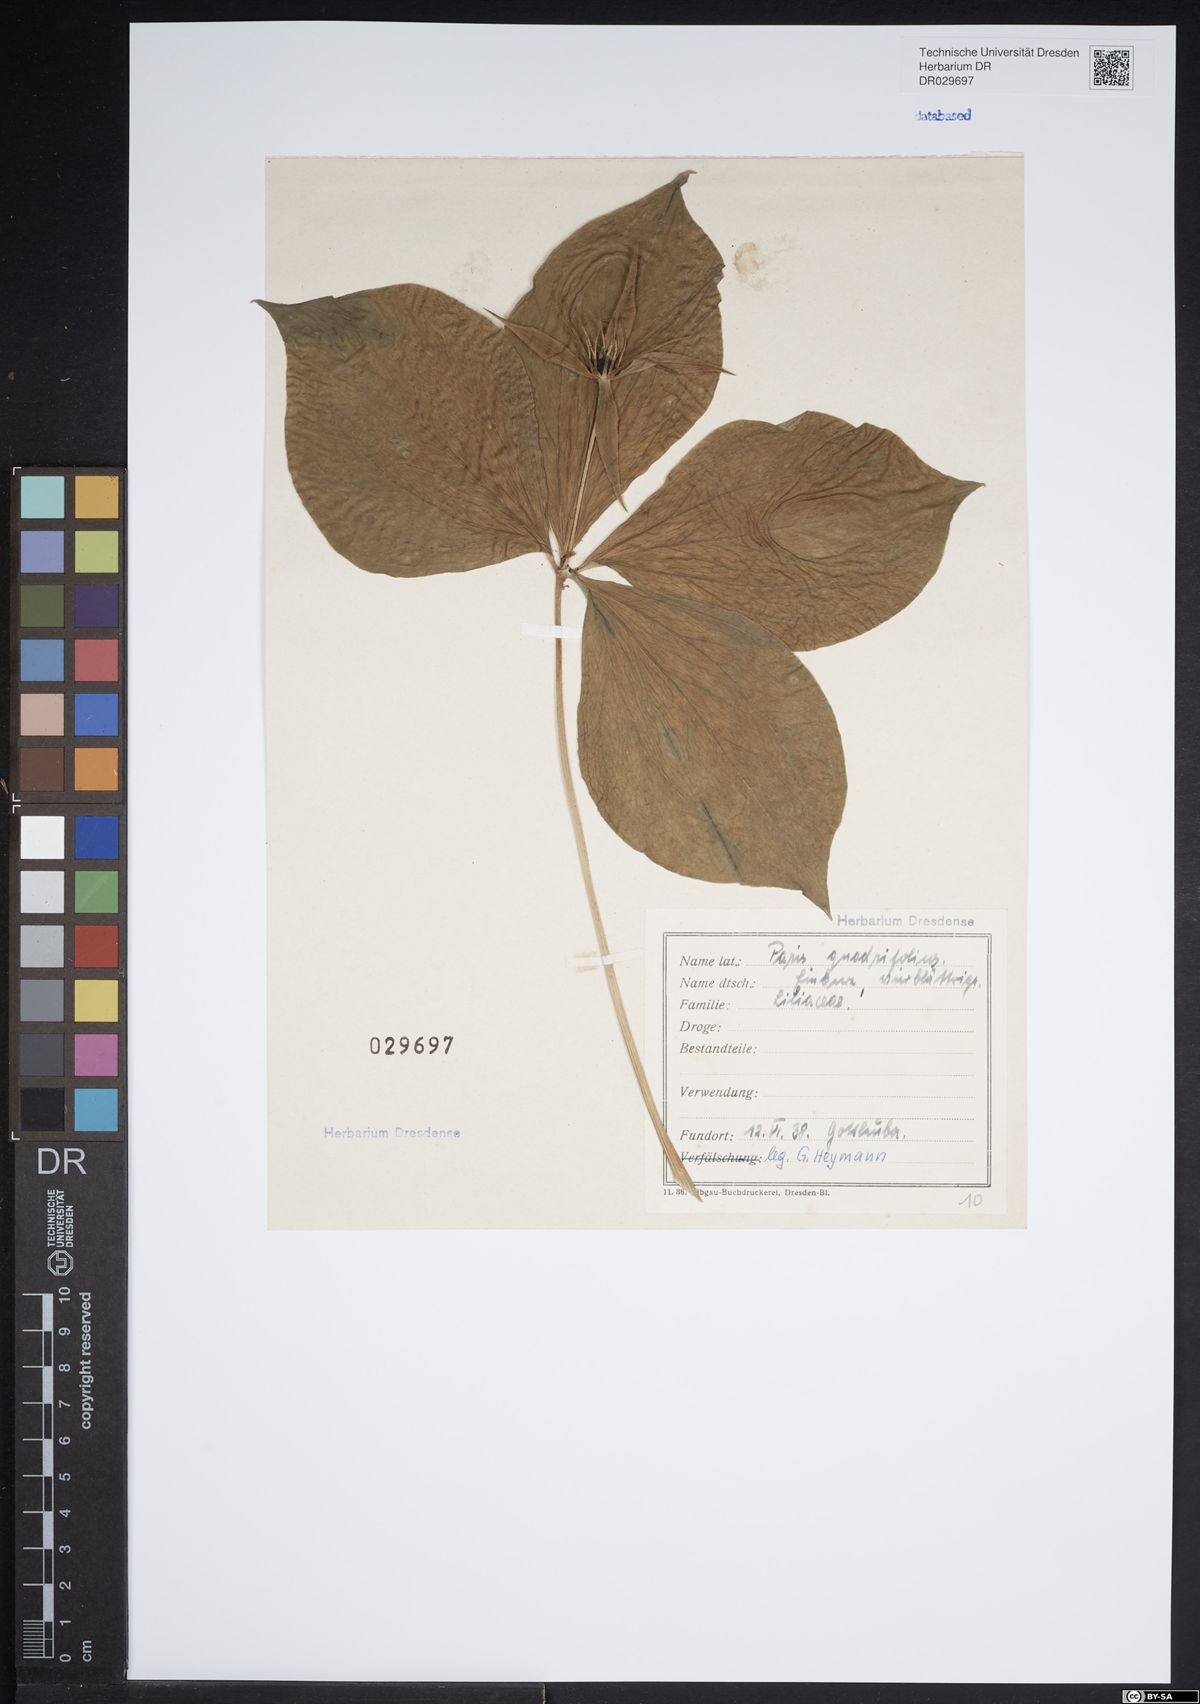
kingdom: Plantae
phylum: Tracheophyta
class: Liliopsida
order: Liliales
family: Melanthiaceae
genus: Paris
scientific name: Paris quadrifolia
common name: Herb-paris
